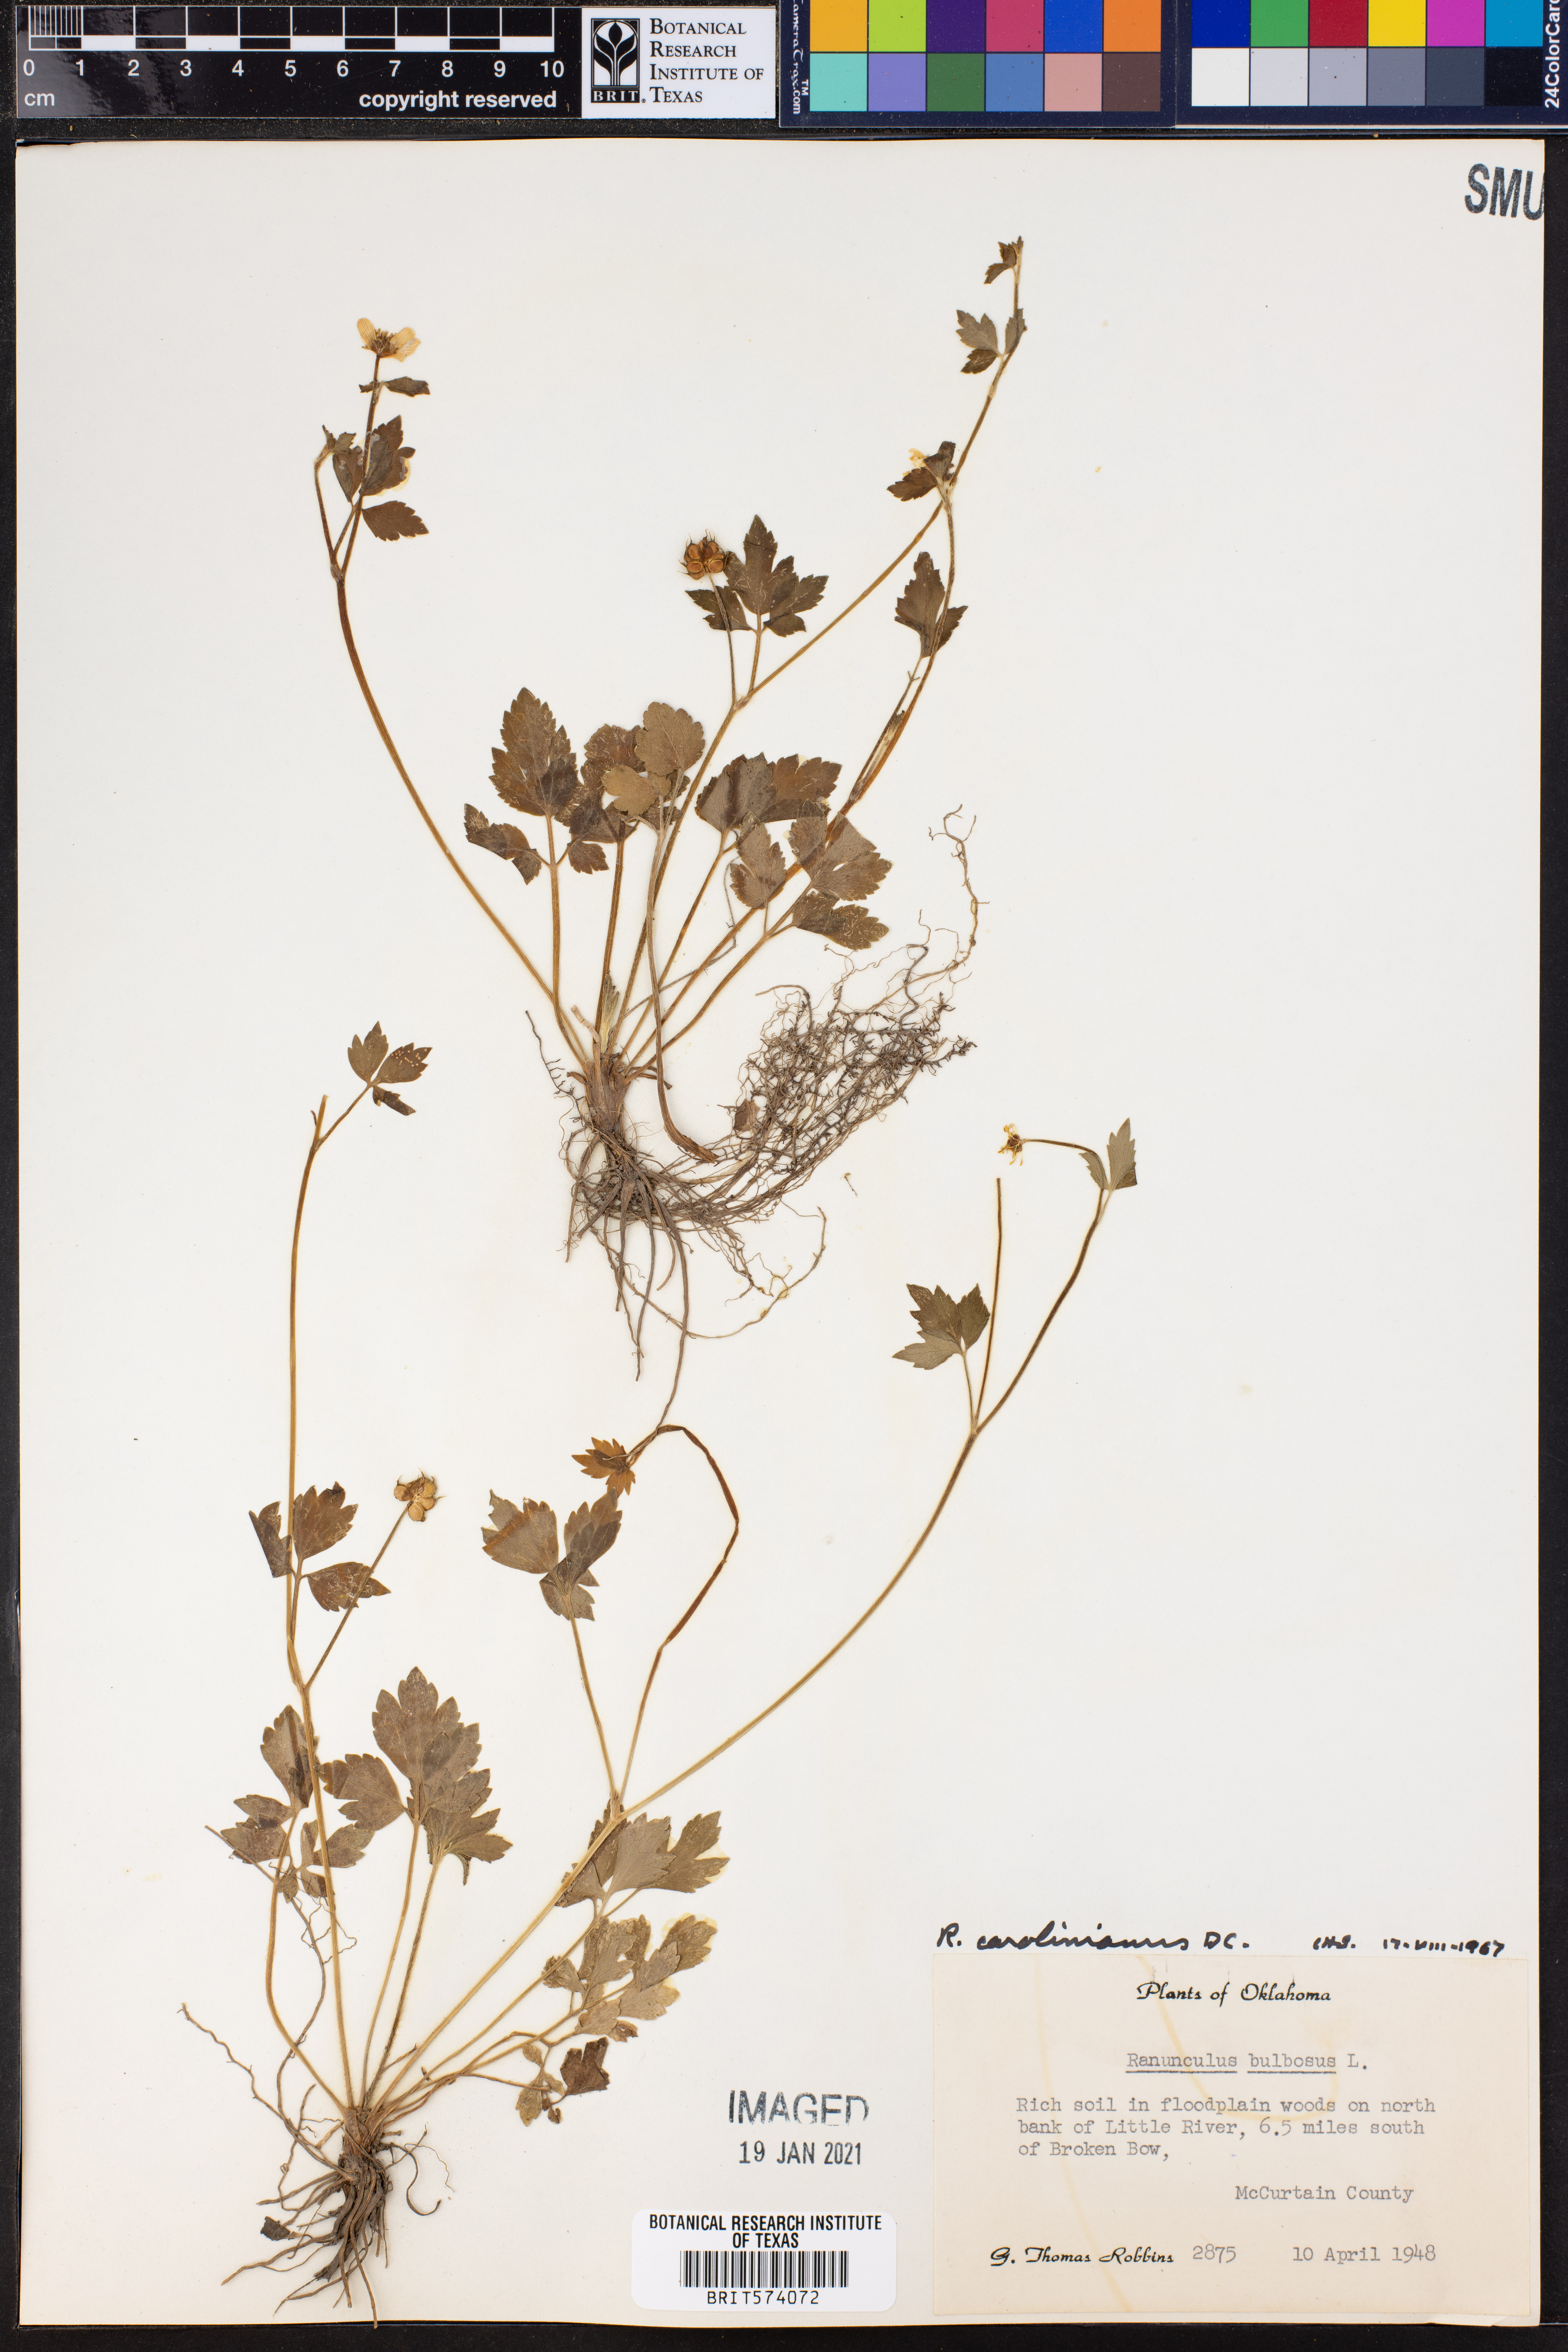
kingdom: Plantae
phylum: Tracheophyta
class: Magnoliopsida
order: Ranunculales
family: Ranunculaceae
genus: Ranunculus
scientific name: Ranunculus hispidus
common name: Bristly buttercup
